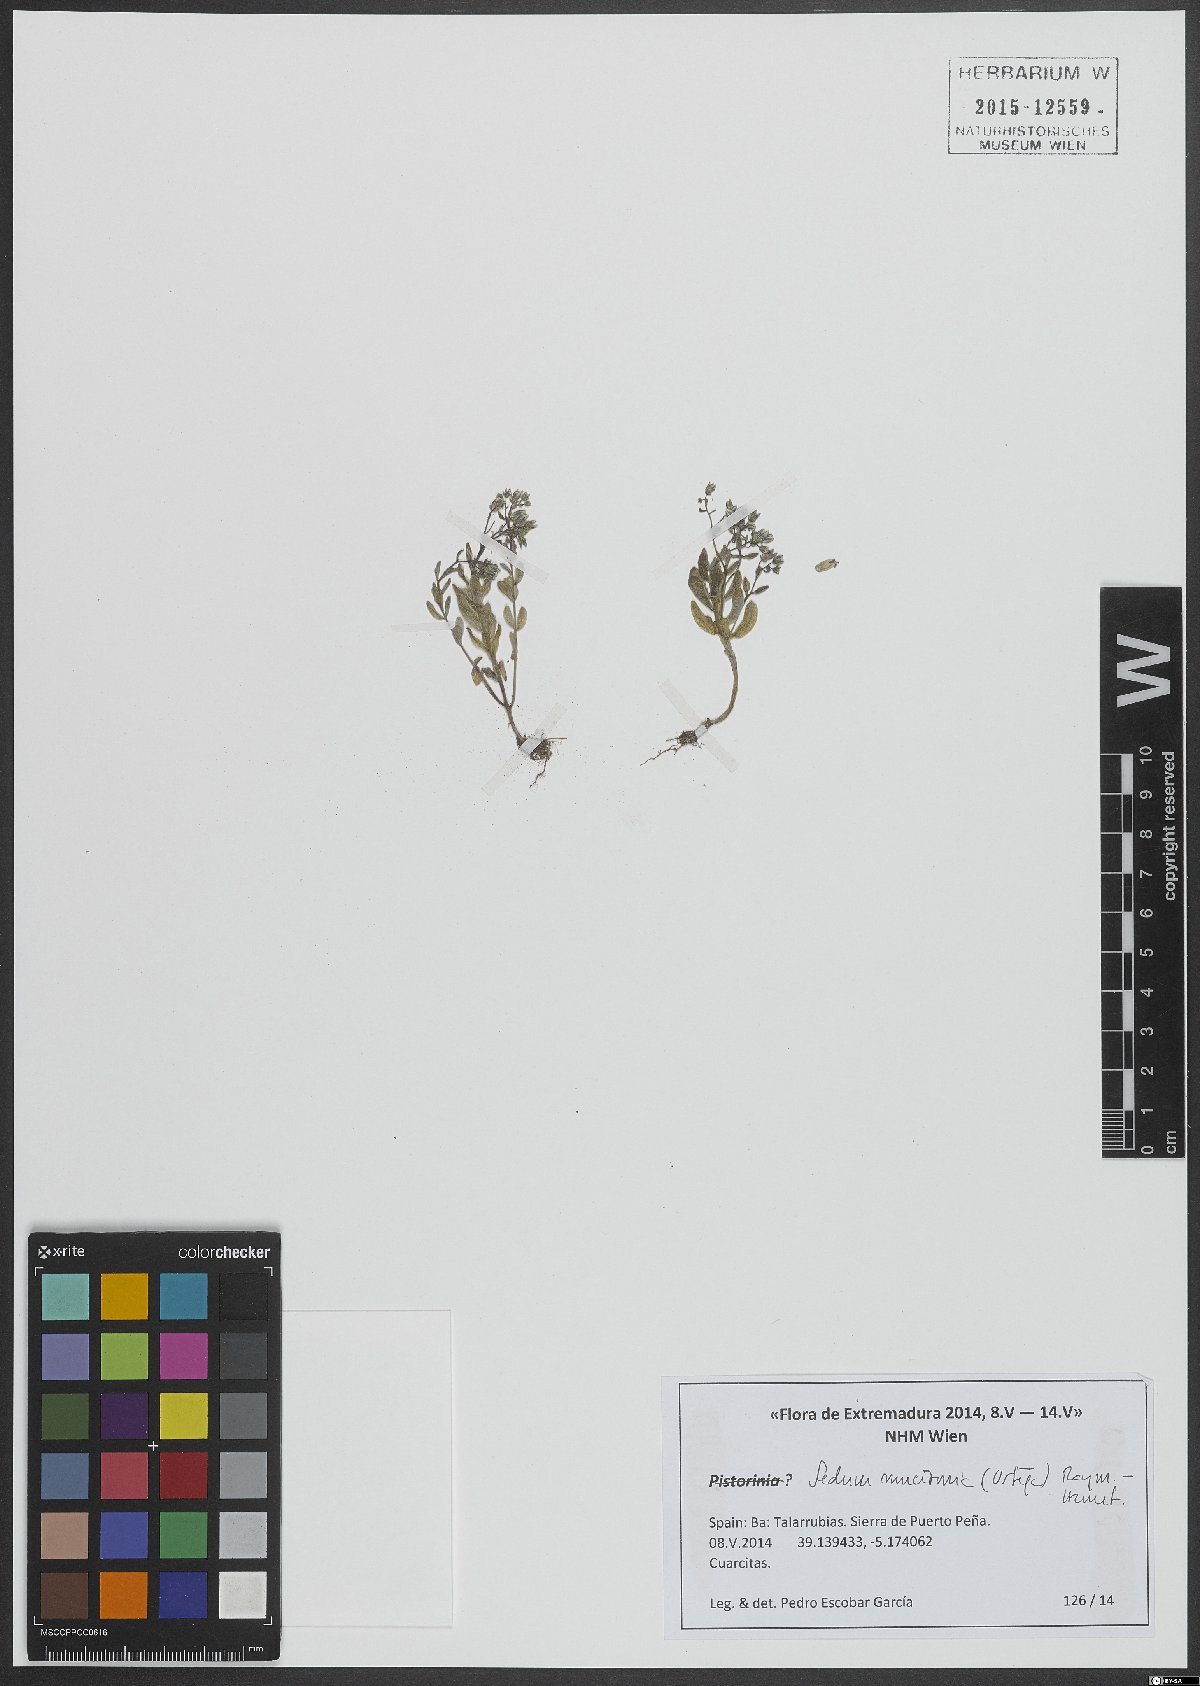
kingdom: Plantae
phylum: Tracheophyta
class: Magnoliopsida
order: Saxifragales
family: Crassulaceae
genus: Pistorinia
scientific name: Pistorinia
